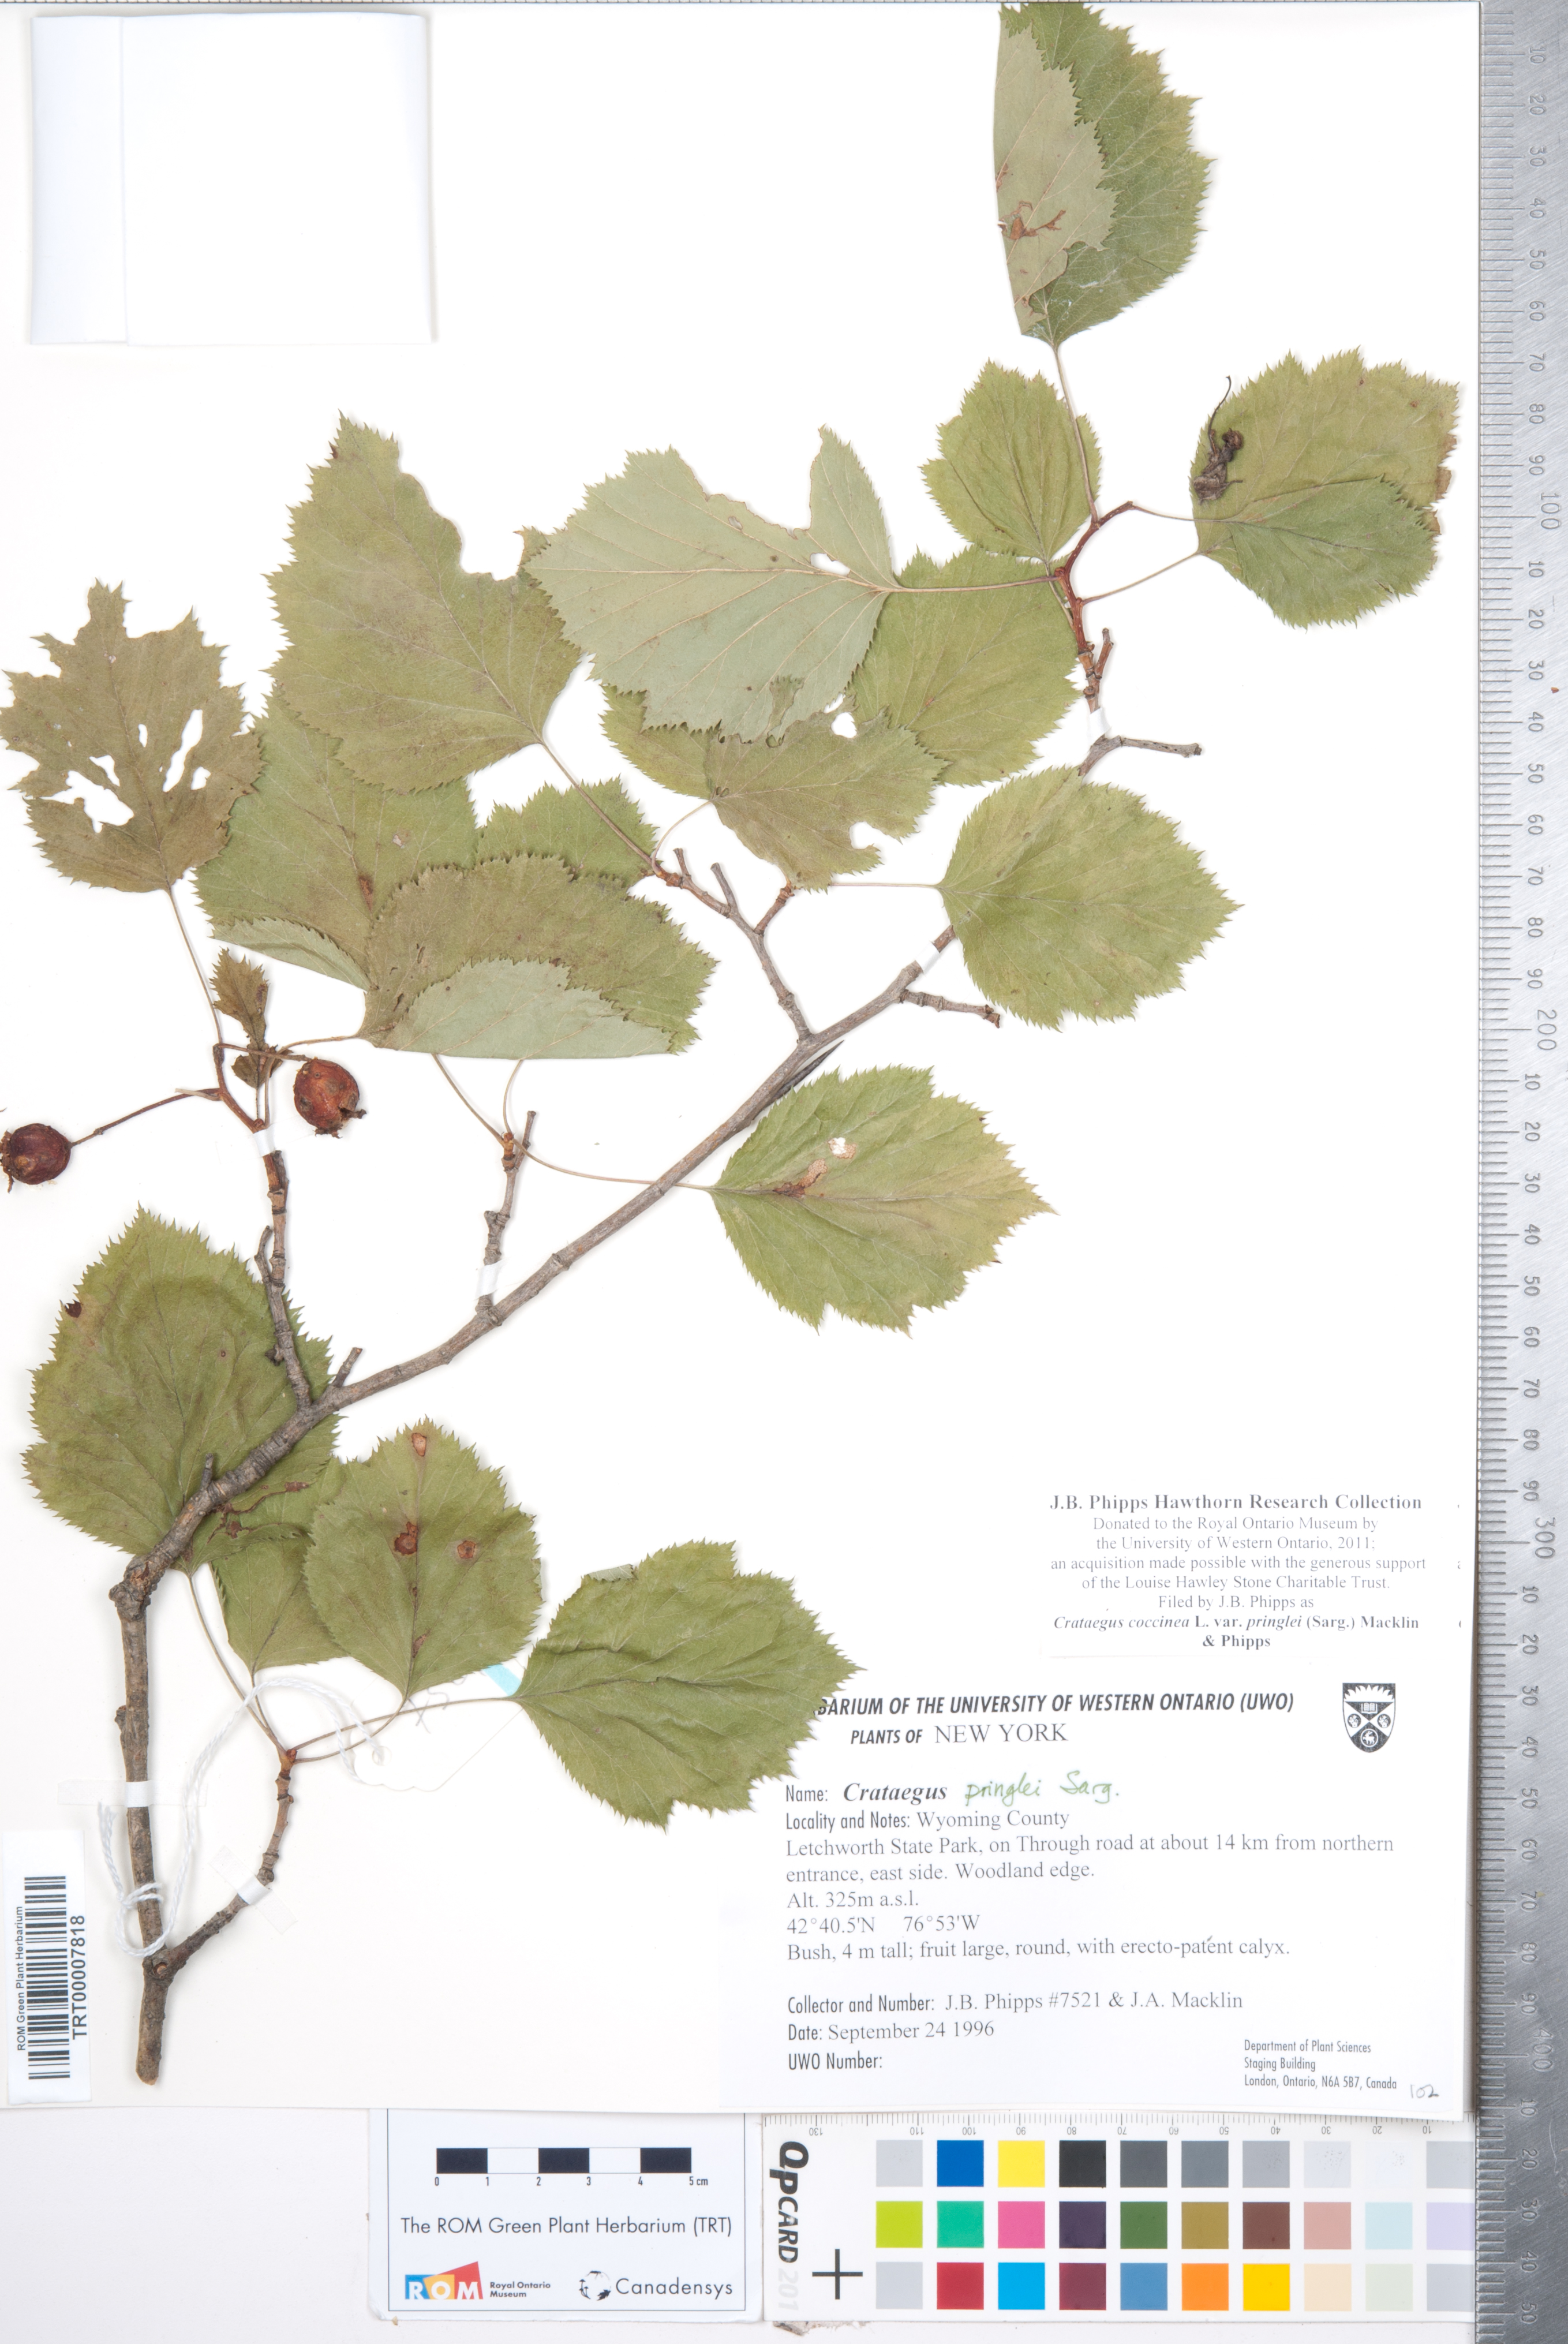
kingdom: Plantae
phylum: Tracheophyta
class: Magnoliopsida
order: Rosales
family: Rosaceae
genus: Crataegus
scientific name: Crataegus coccinea
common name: Scarlet hawthorn
